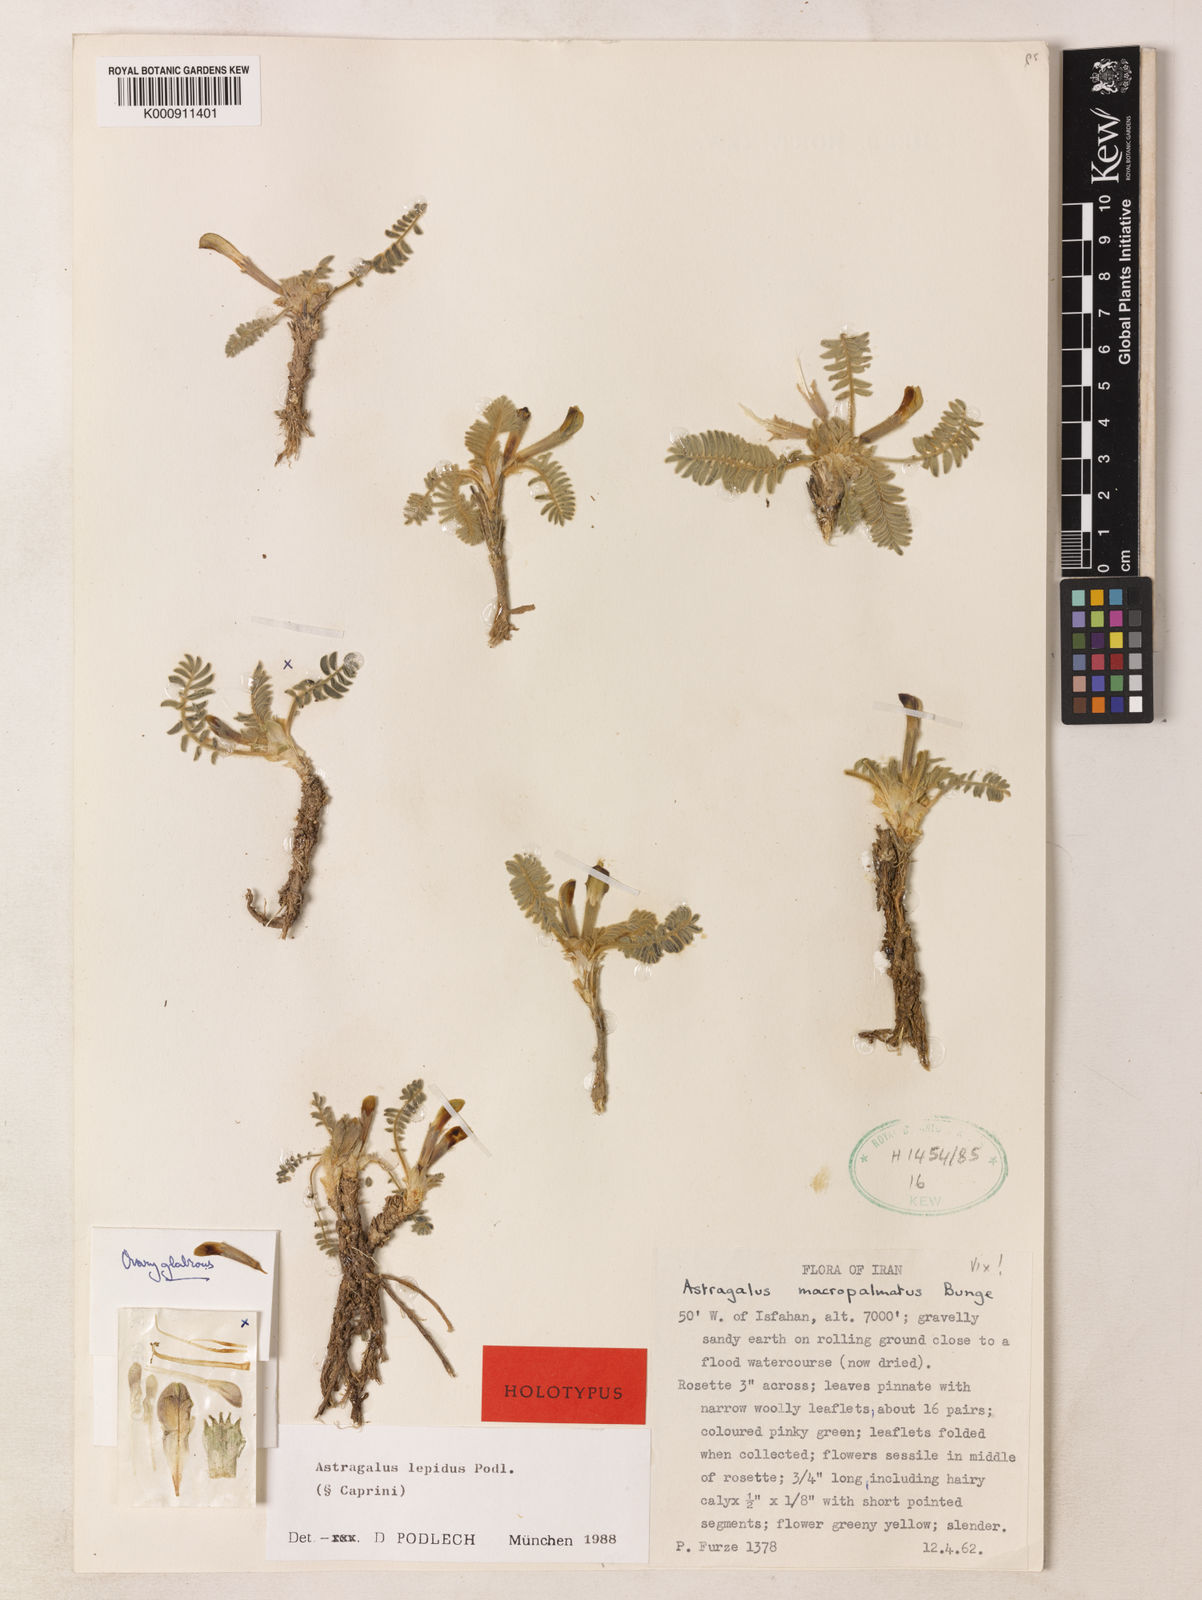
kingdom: Plantae
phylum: Tracheophyta
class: Magnoliopsida
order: Fabales
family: Fabaceae
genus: Astragalus
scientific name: Astragalus lepidus
